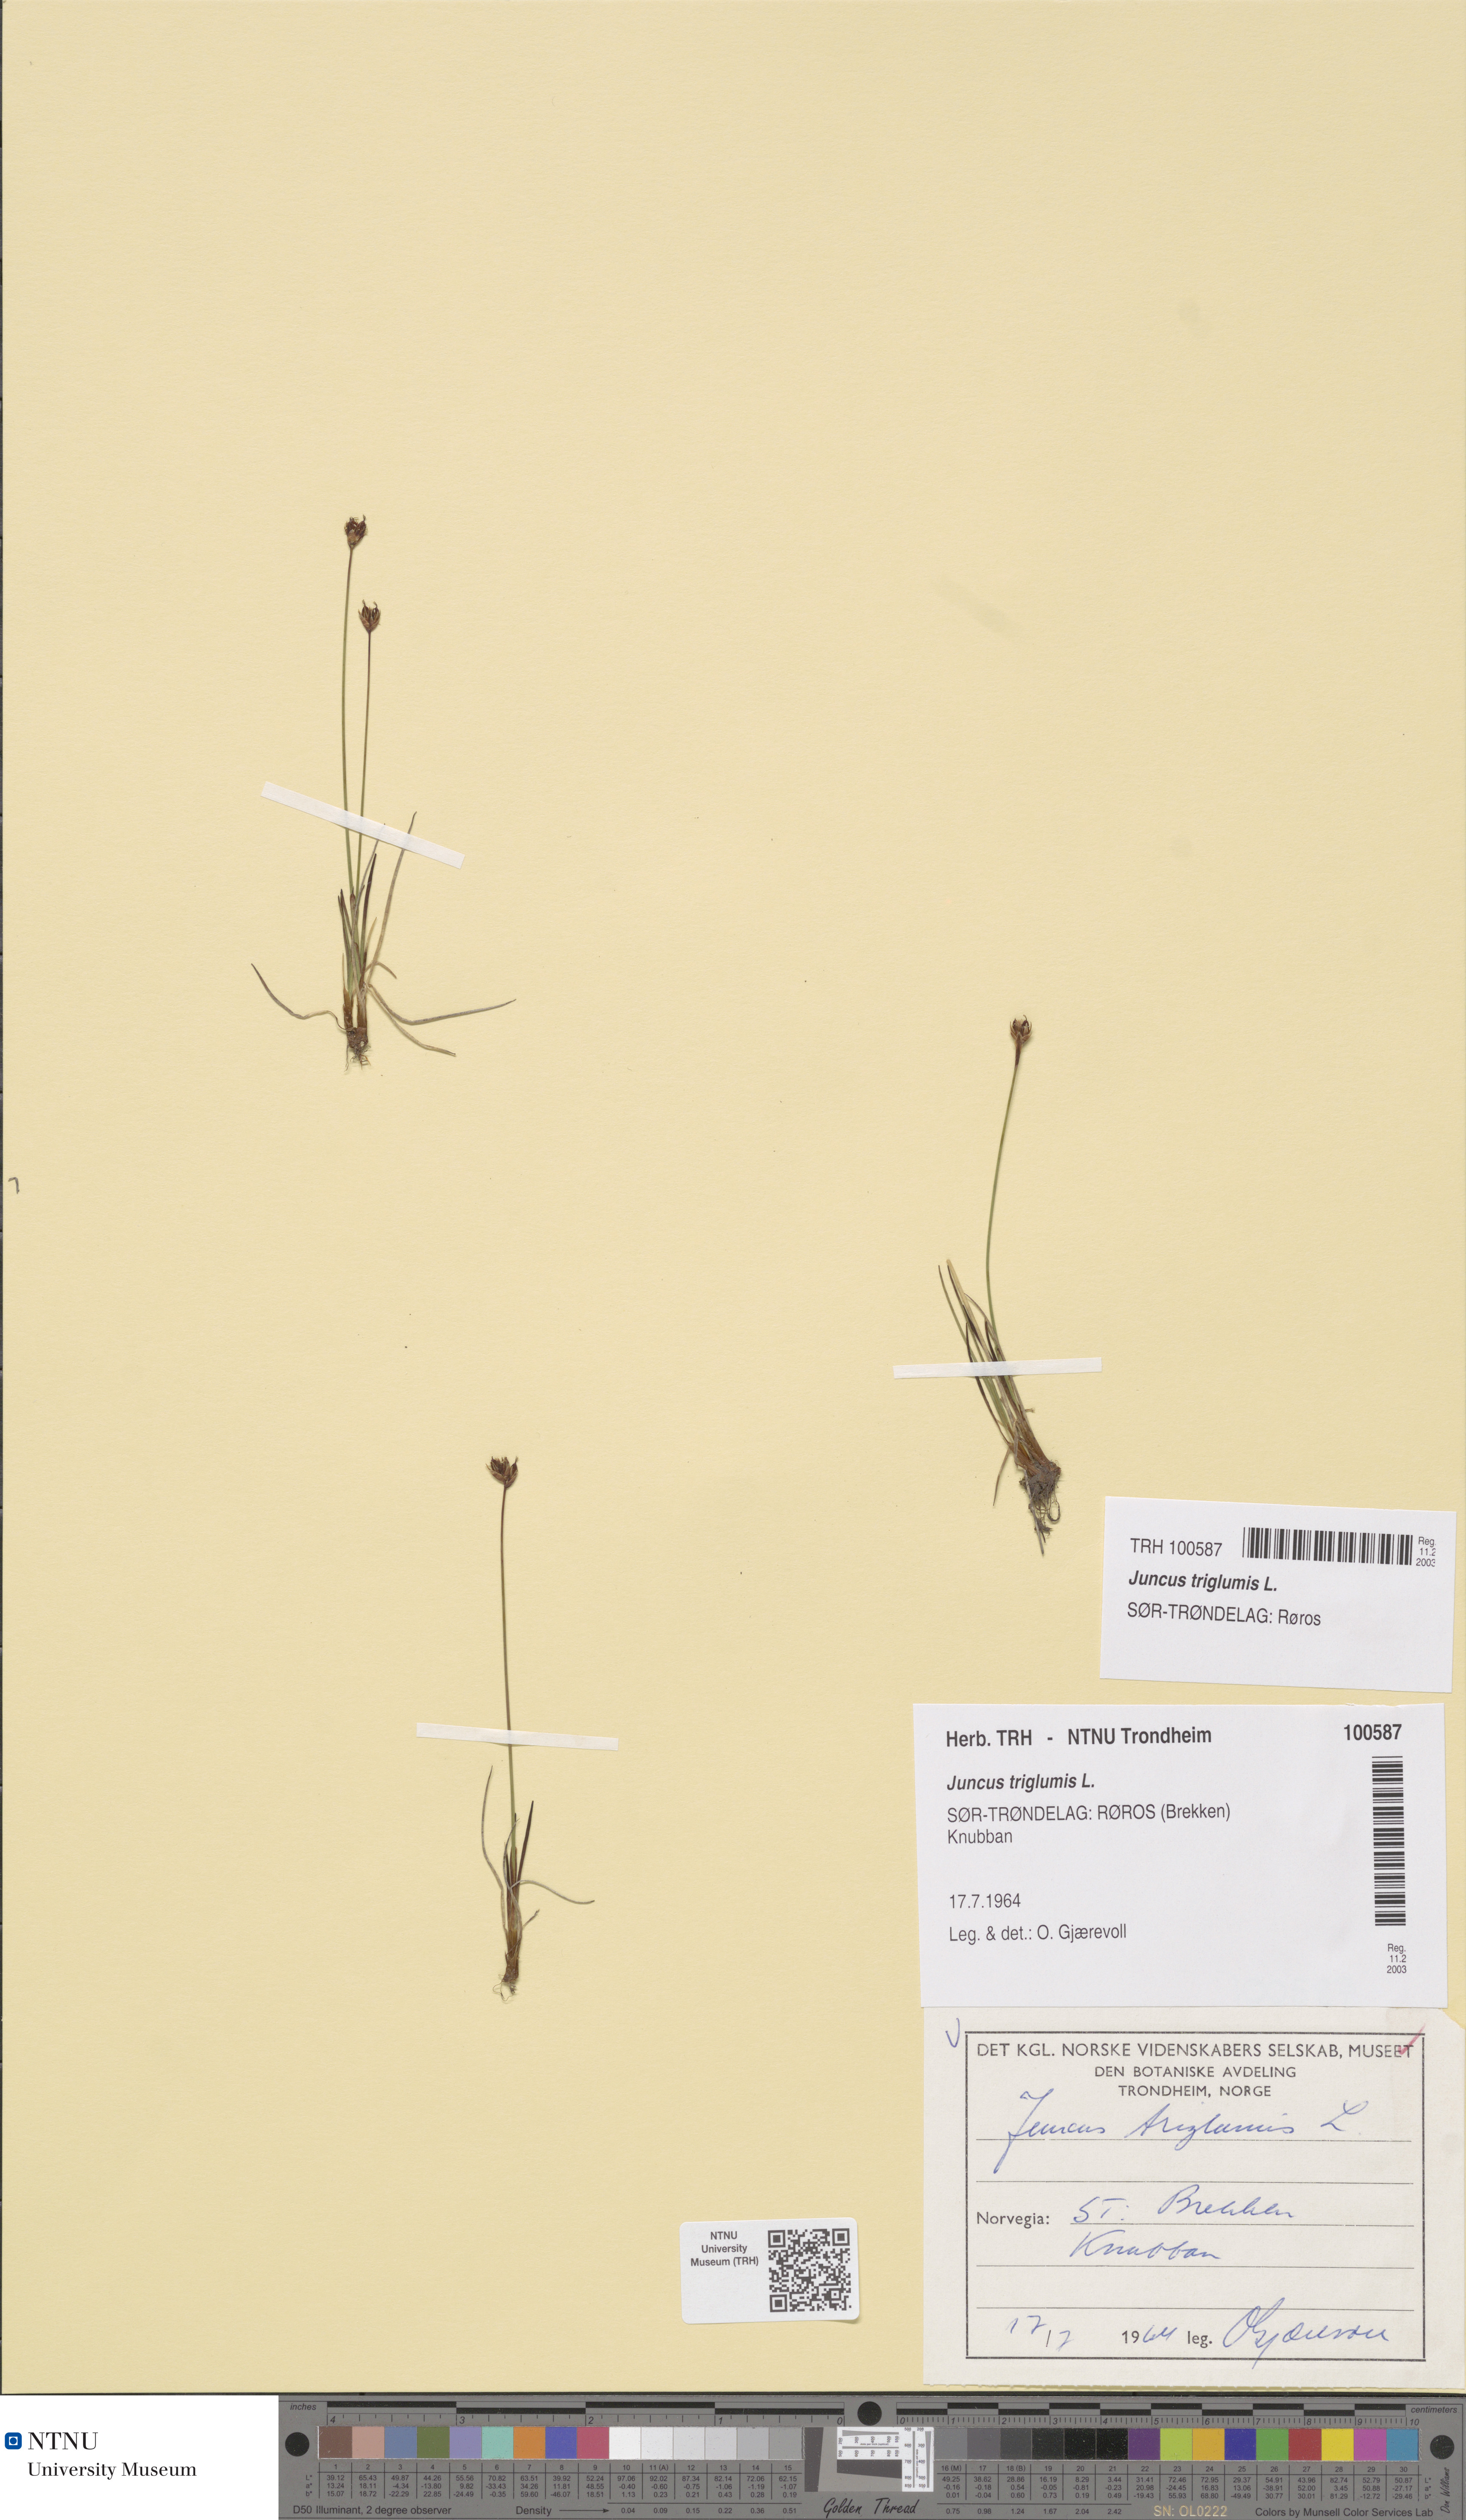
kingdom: Plantae
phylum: Tracheophyta
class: Liliopsida
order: Poales
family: Juncaceae
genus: Juncus
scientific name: Juncus triglumis
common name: Three-flowered rush
